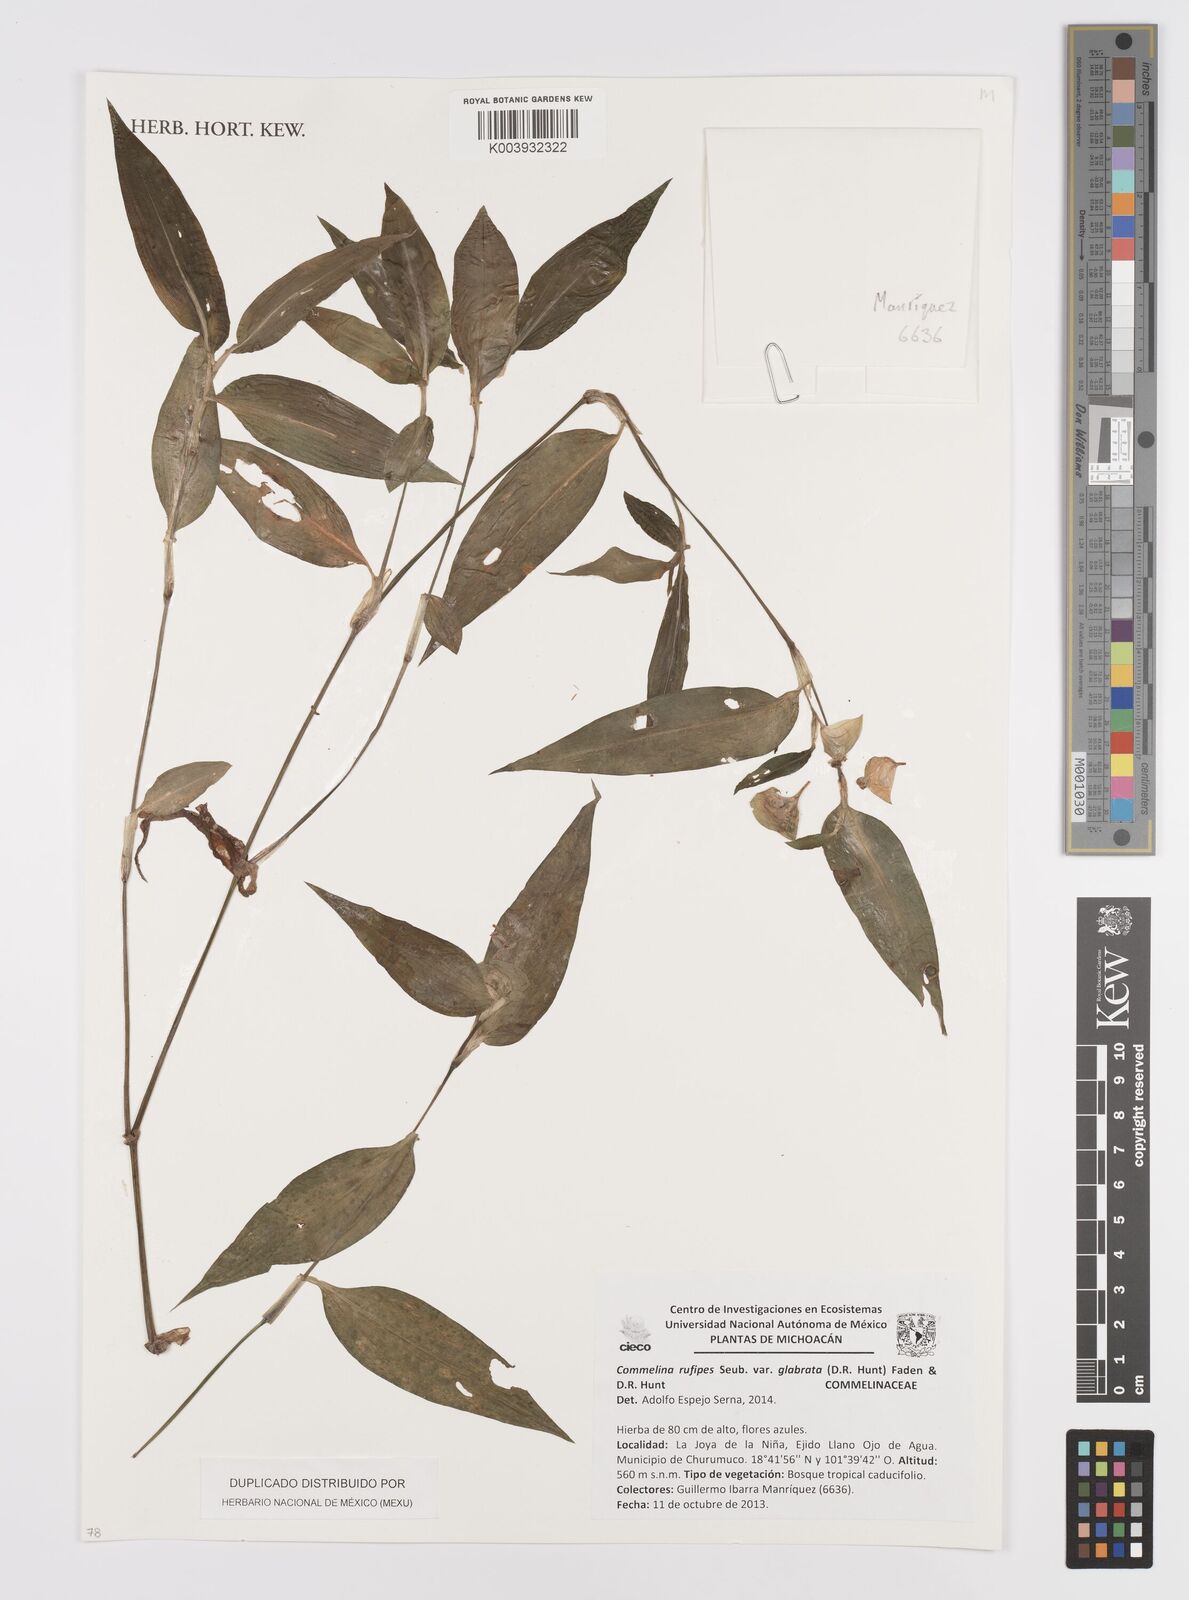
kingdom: Plantae
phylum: Tracheophyta
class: Liliopsida
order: Commelinales
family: Commelinaceae
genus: Commelina
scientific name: Commelina rufipes
